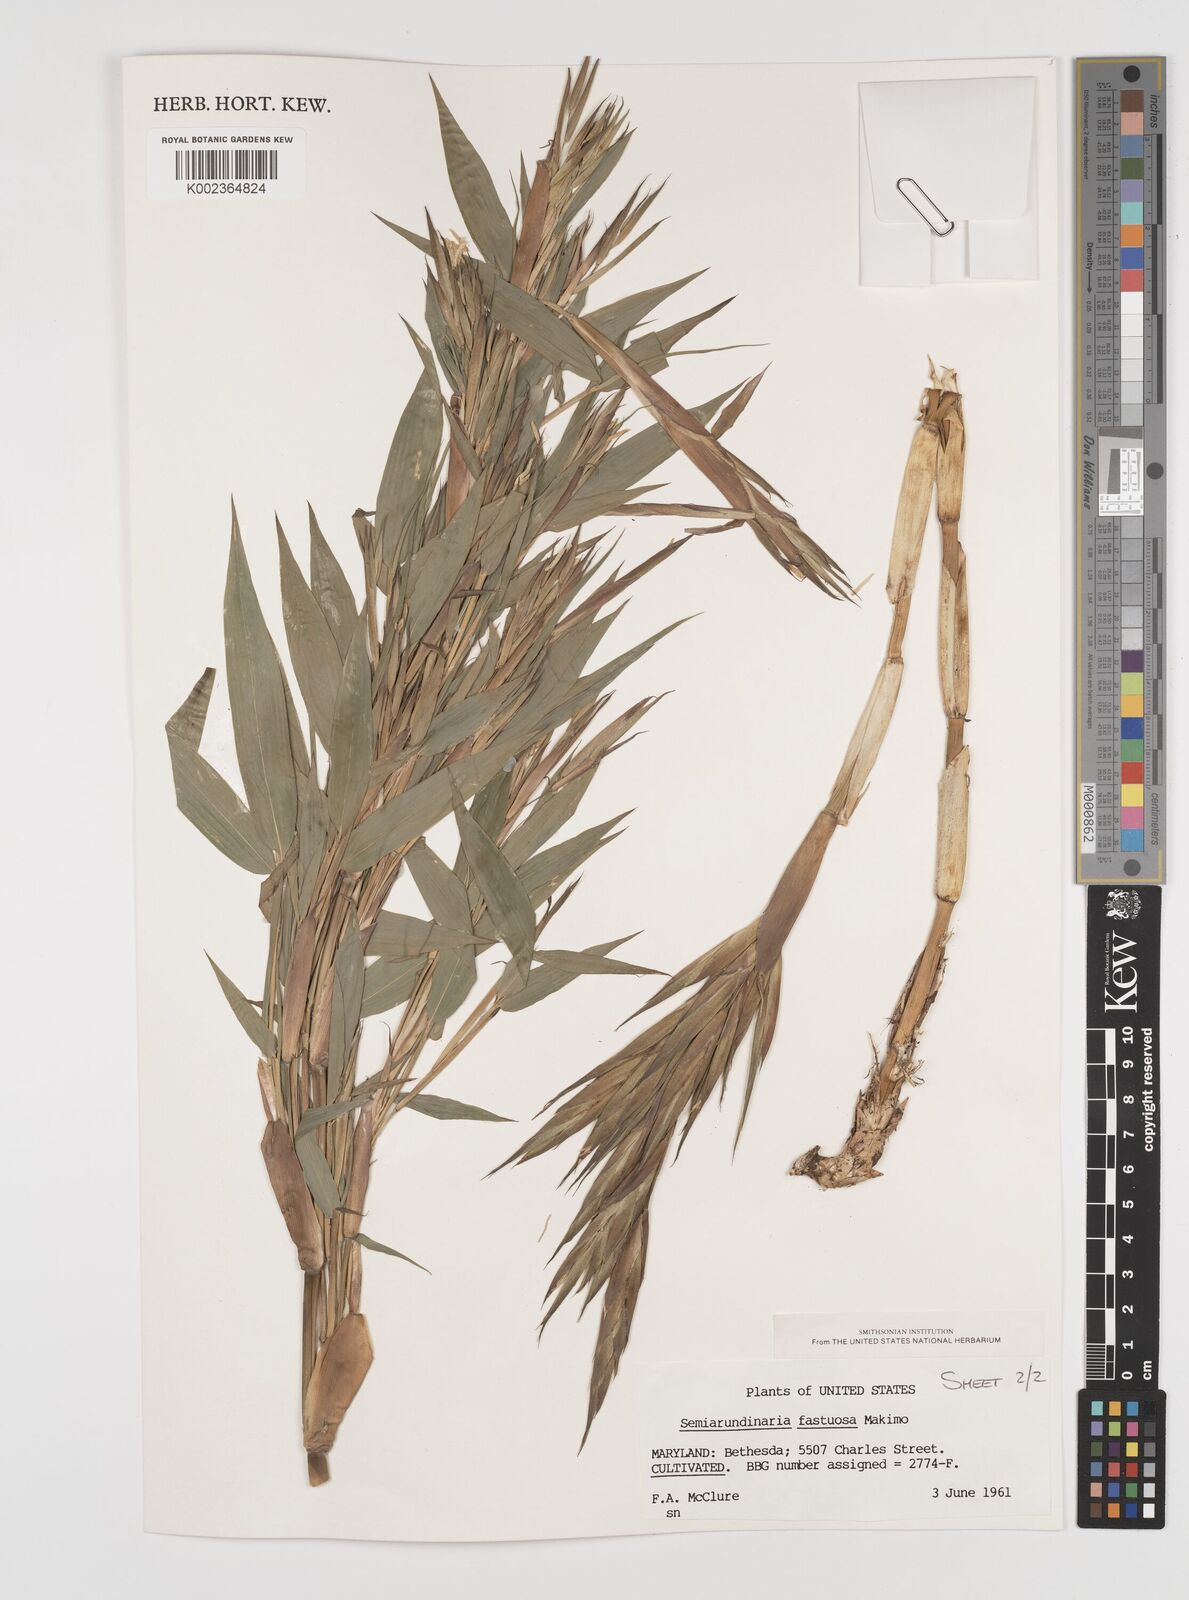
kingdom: Plantae
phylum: Tracheophyta
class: Liliopsida
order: Poales
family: Poaceae
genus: Semiarundinaria
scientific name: Semiarundinaria fastuosa
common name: Narihira bamboo
